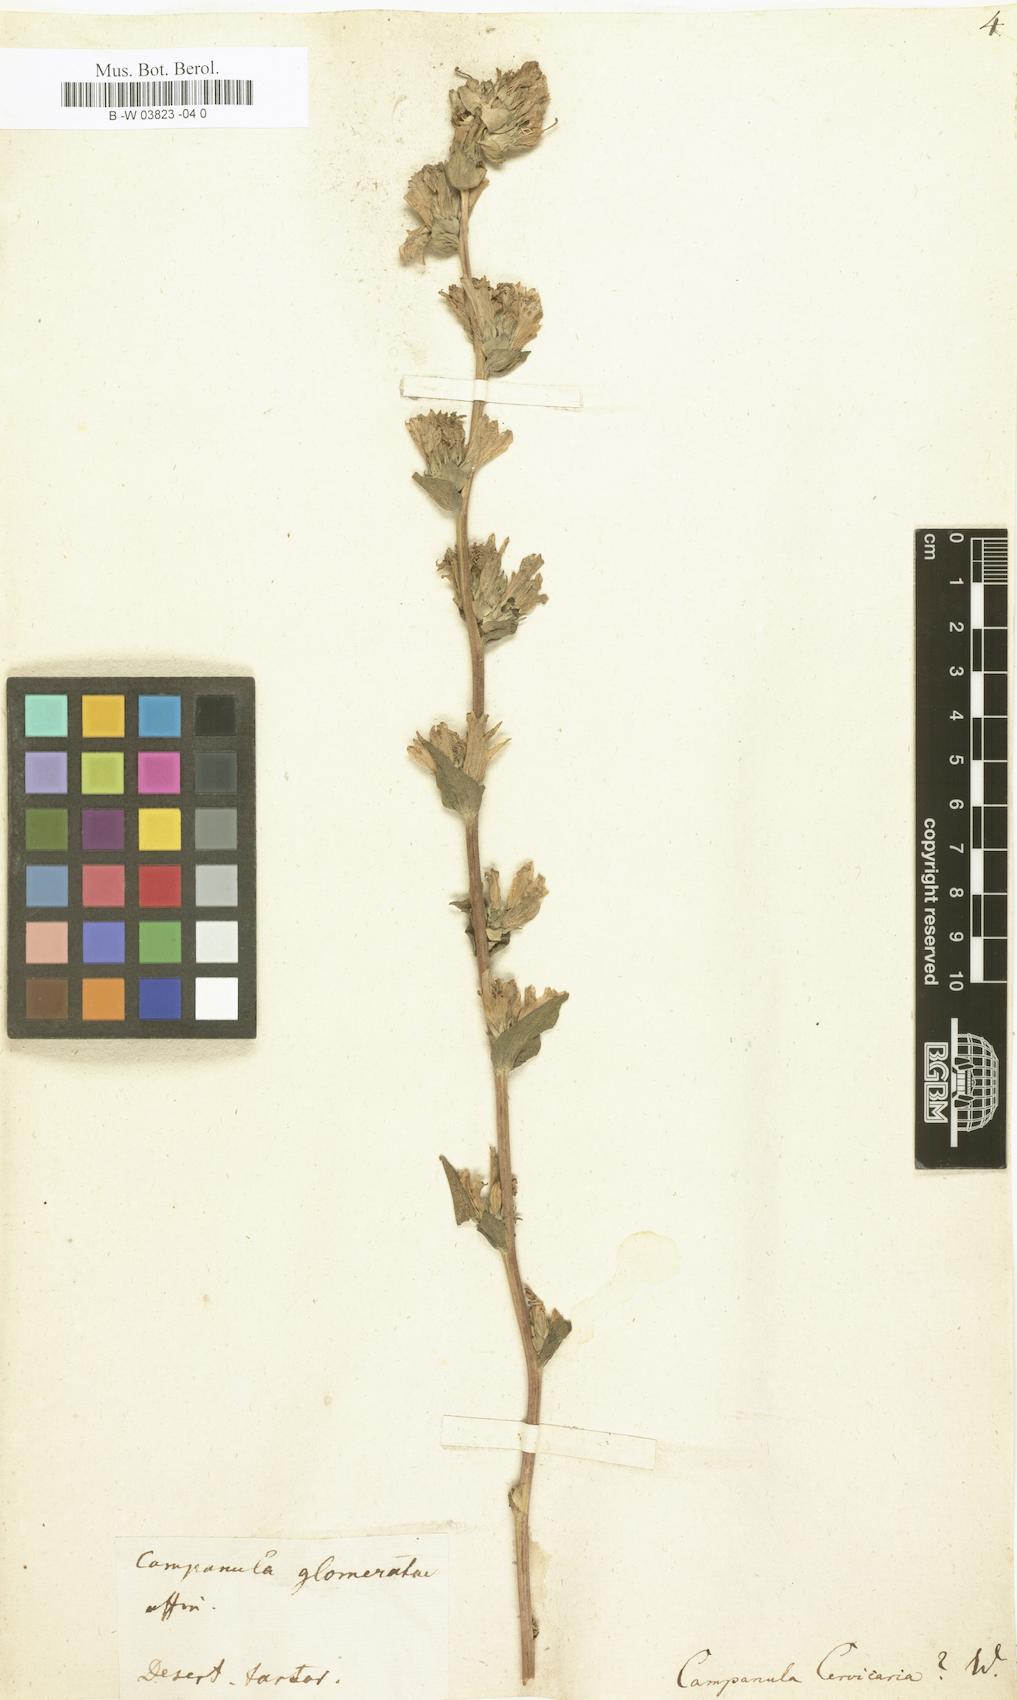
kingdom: Plantae
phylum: Tracheophyta
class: Magnoliopsida
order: Asterales
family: Campanulaceae
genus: Campanula
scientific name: Campanula cervicaria
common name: Bristly bellflower
